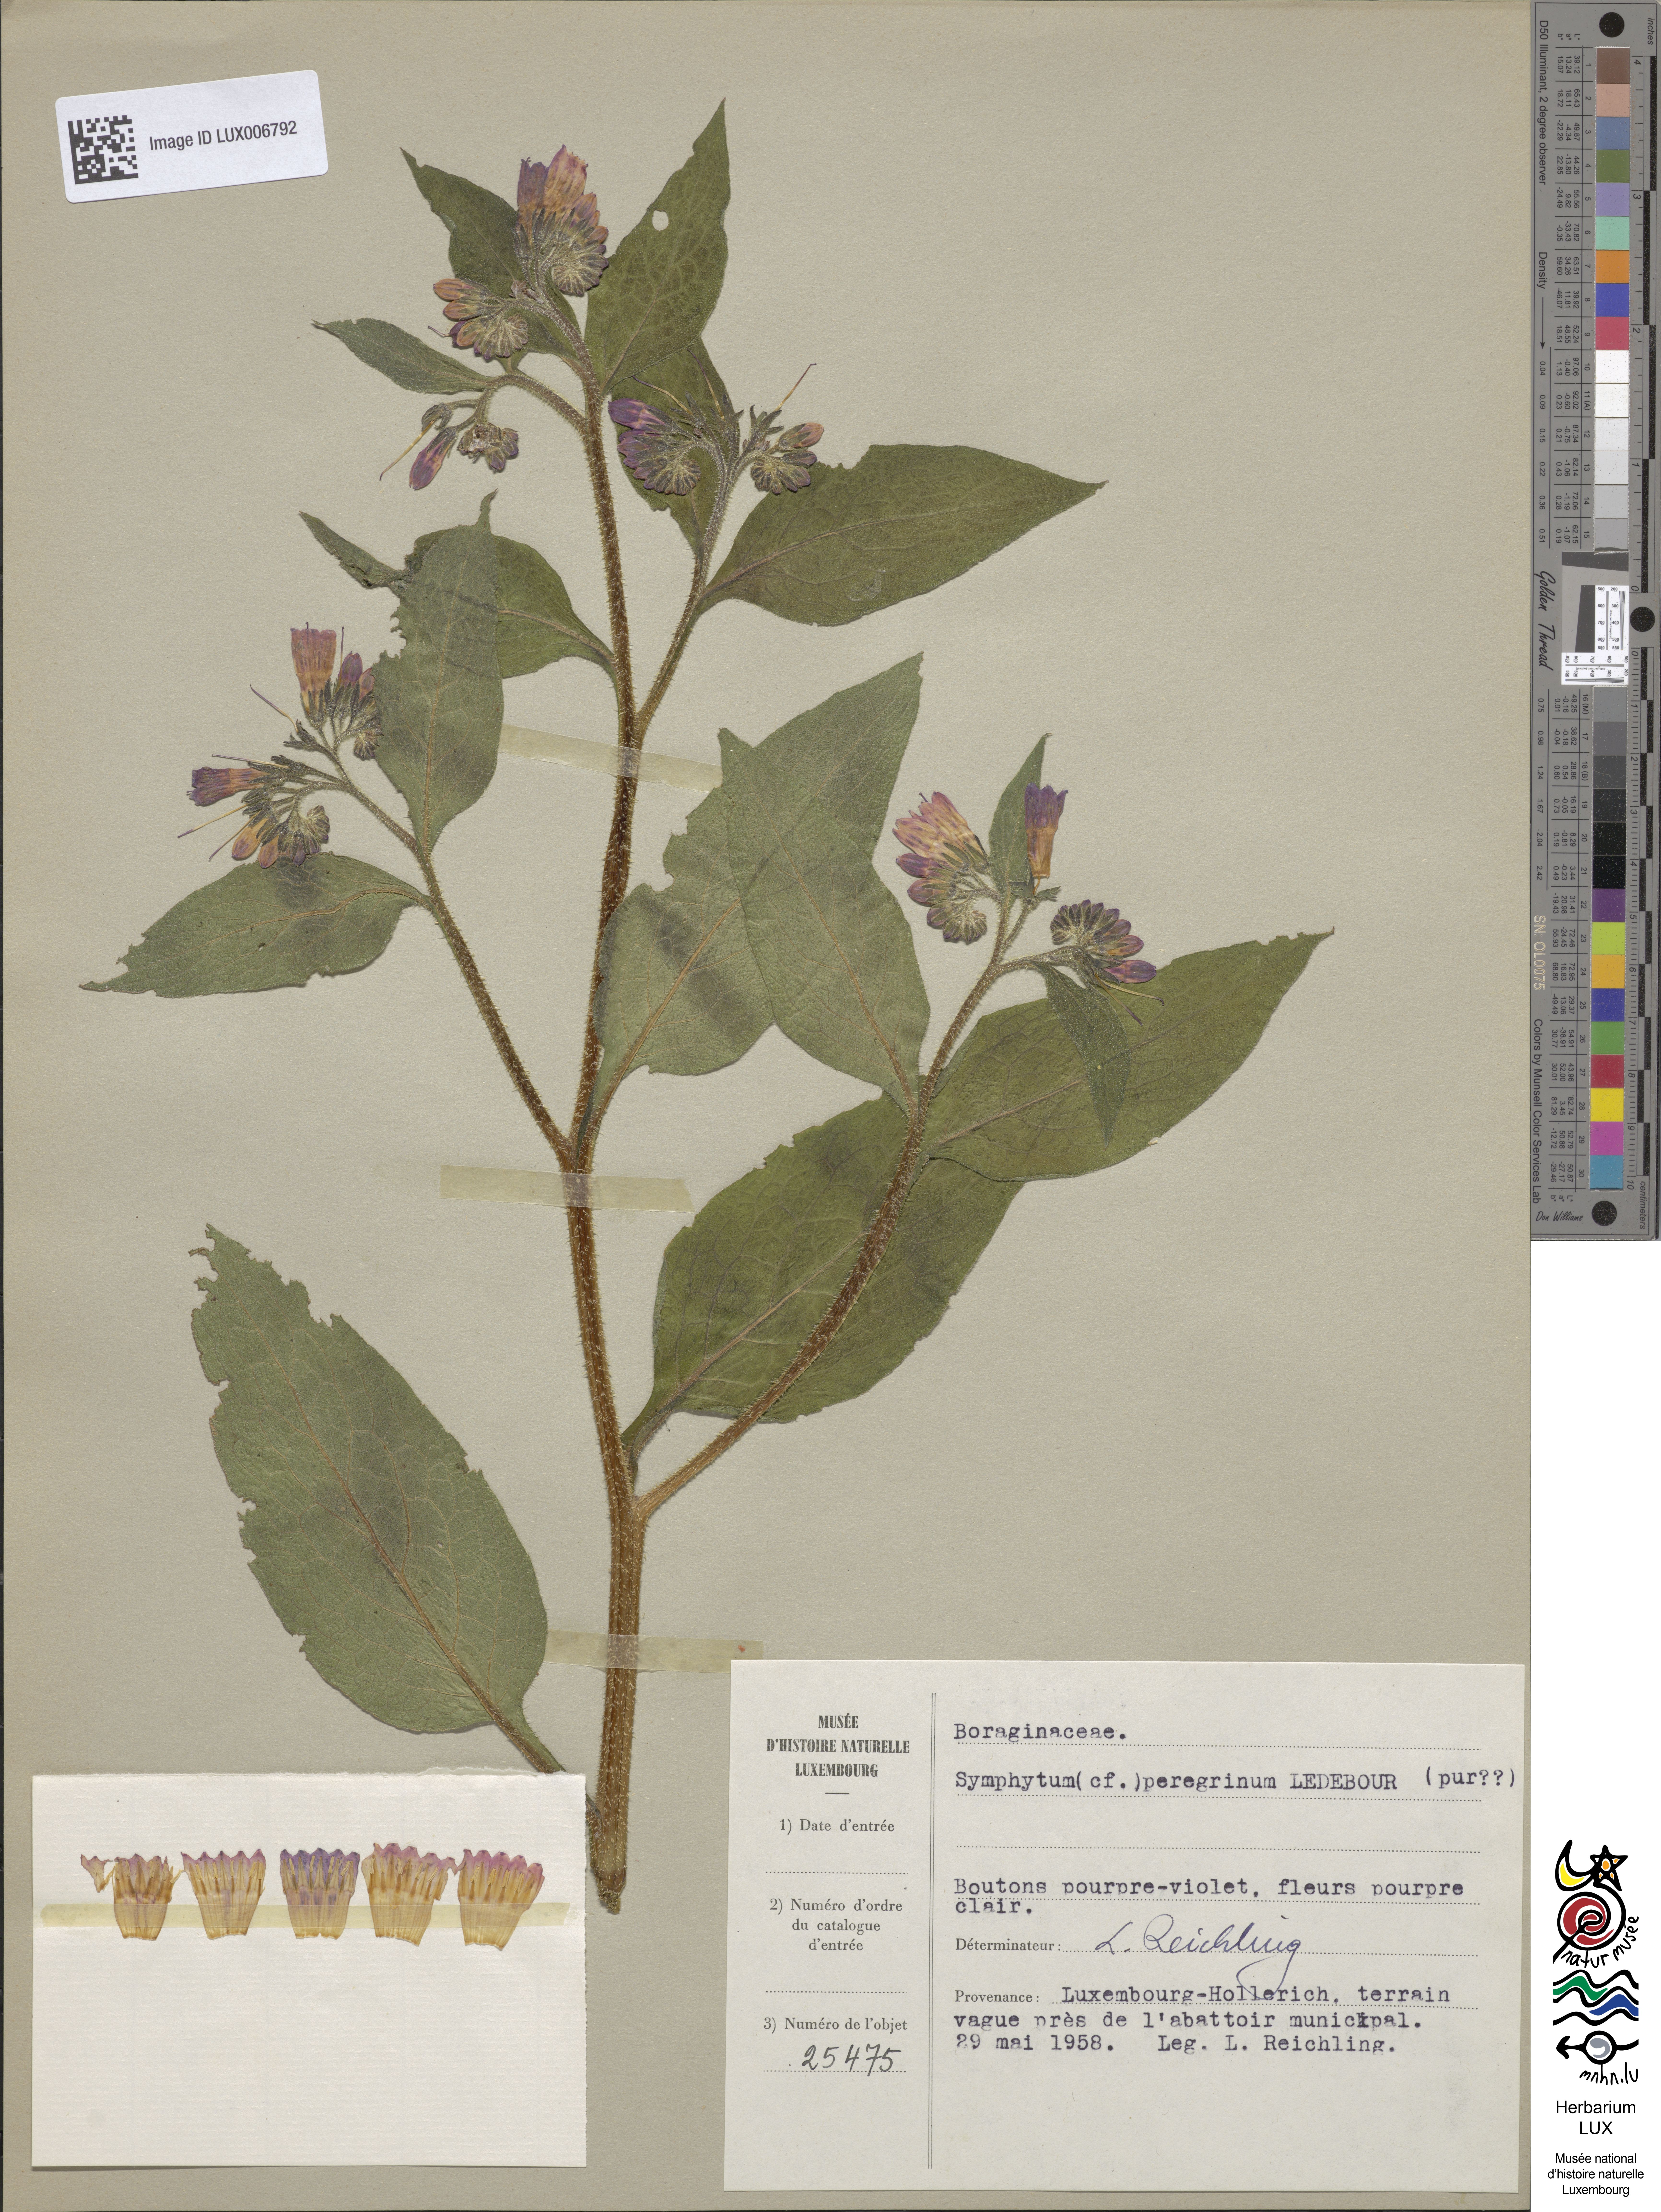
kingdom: Plantae
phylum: Tracheophyta
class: Magnoliopsida
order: Boraginales
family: Boraginaceae
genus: Symphytum
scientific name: Symphytum officinale
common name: Common comfrey
